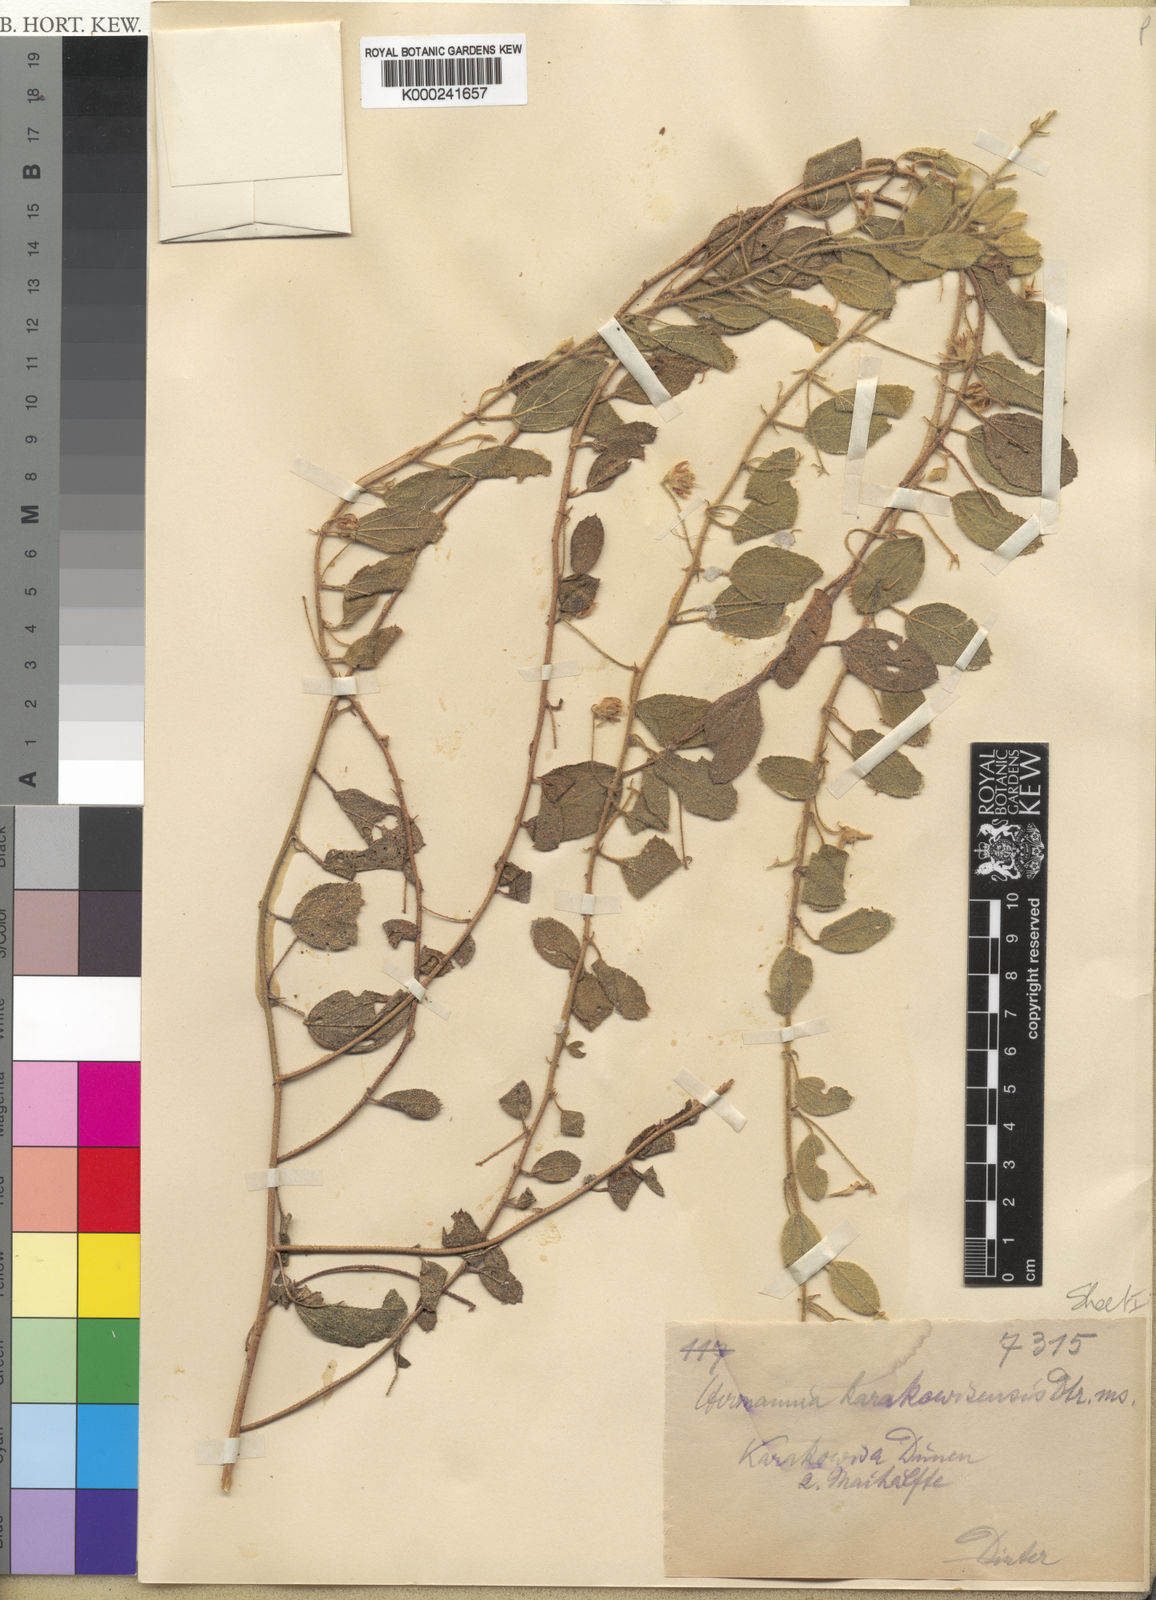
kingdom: Plantae
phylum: Tracheophyta
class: Magnoliopsida
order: Malvales
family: Malvaceae
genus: Hermannia
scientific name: Hermannia
